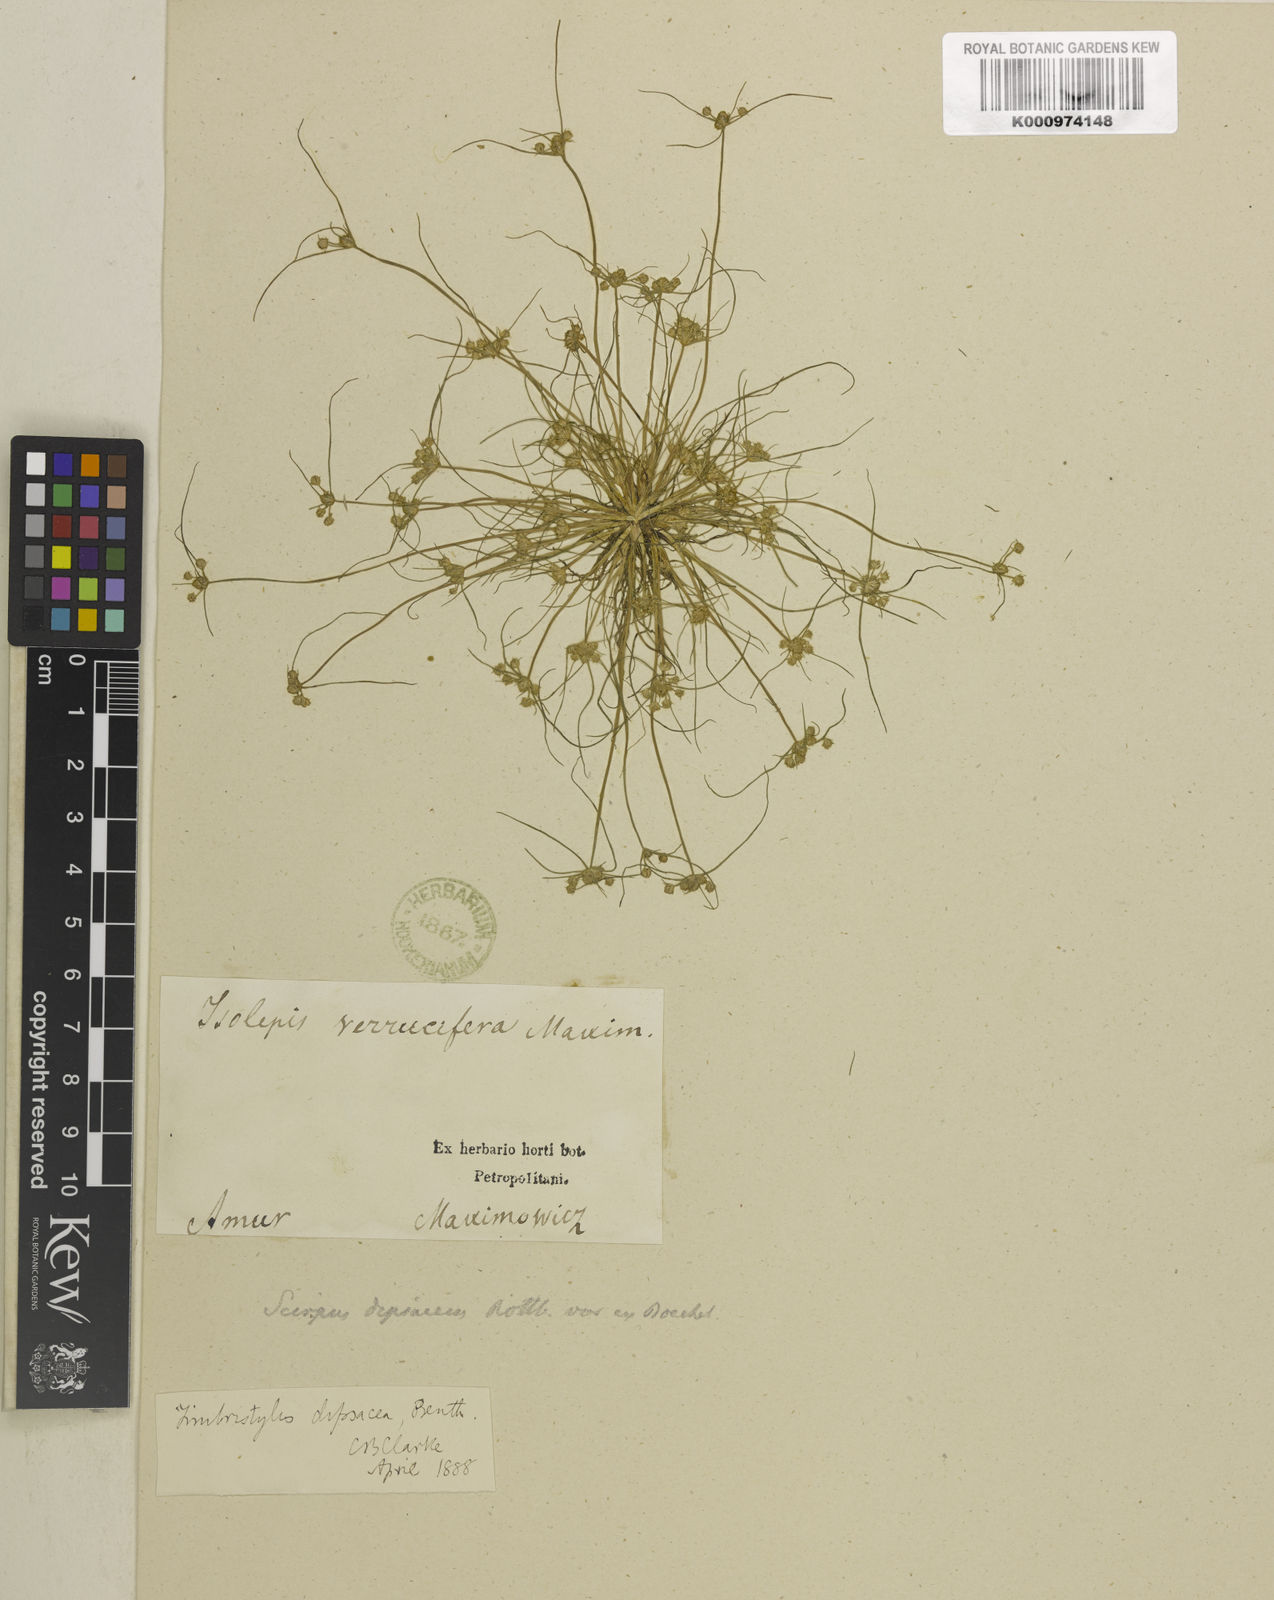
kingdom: Plantae
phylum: Tracheophyta
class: Liliopsida
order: Poales
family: Cyperaceae
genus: Fimbristylis
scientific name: Fimbristylis dipsacea
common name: Harper's fimbristylis
